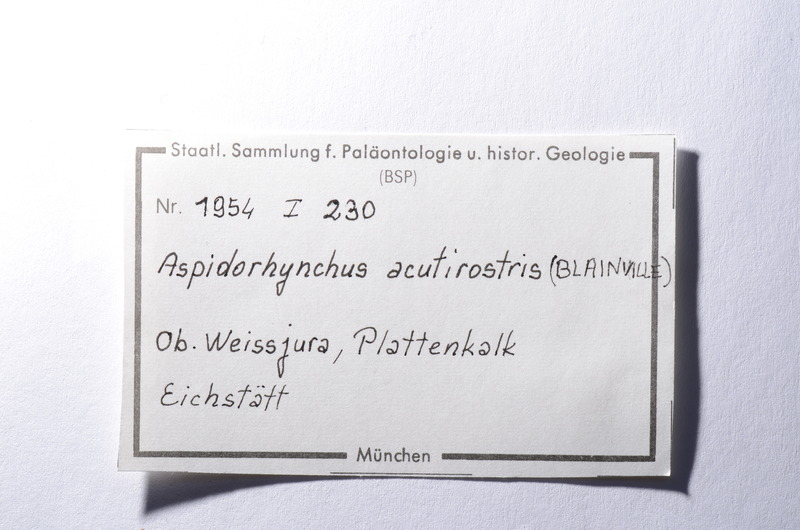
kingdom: Animalia
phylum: Chordata
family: Aspidorhynchidae
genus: Aspidorhynchus
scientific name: Aspidorhynchus acutirostris
